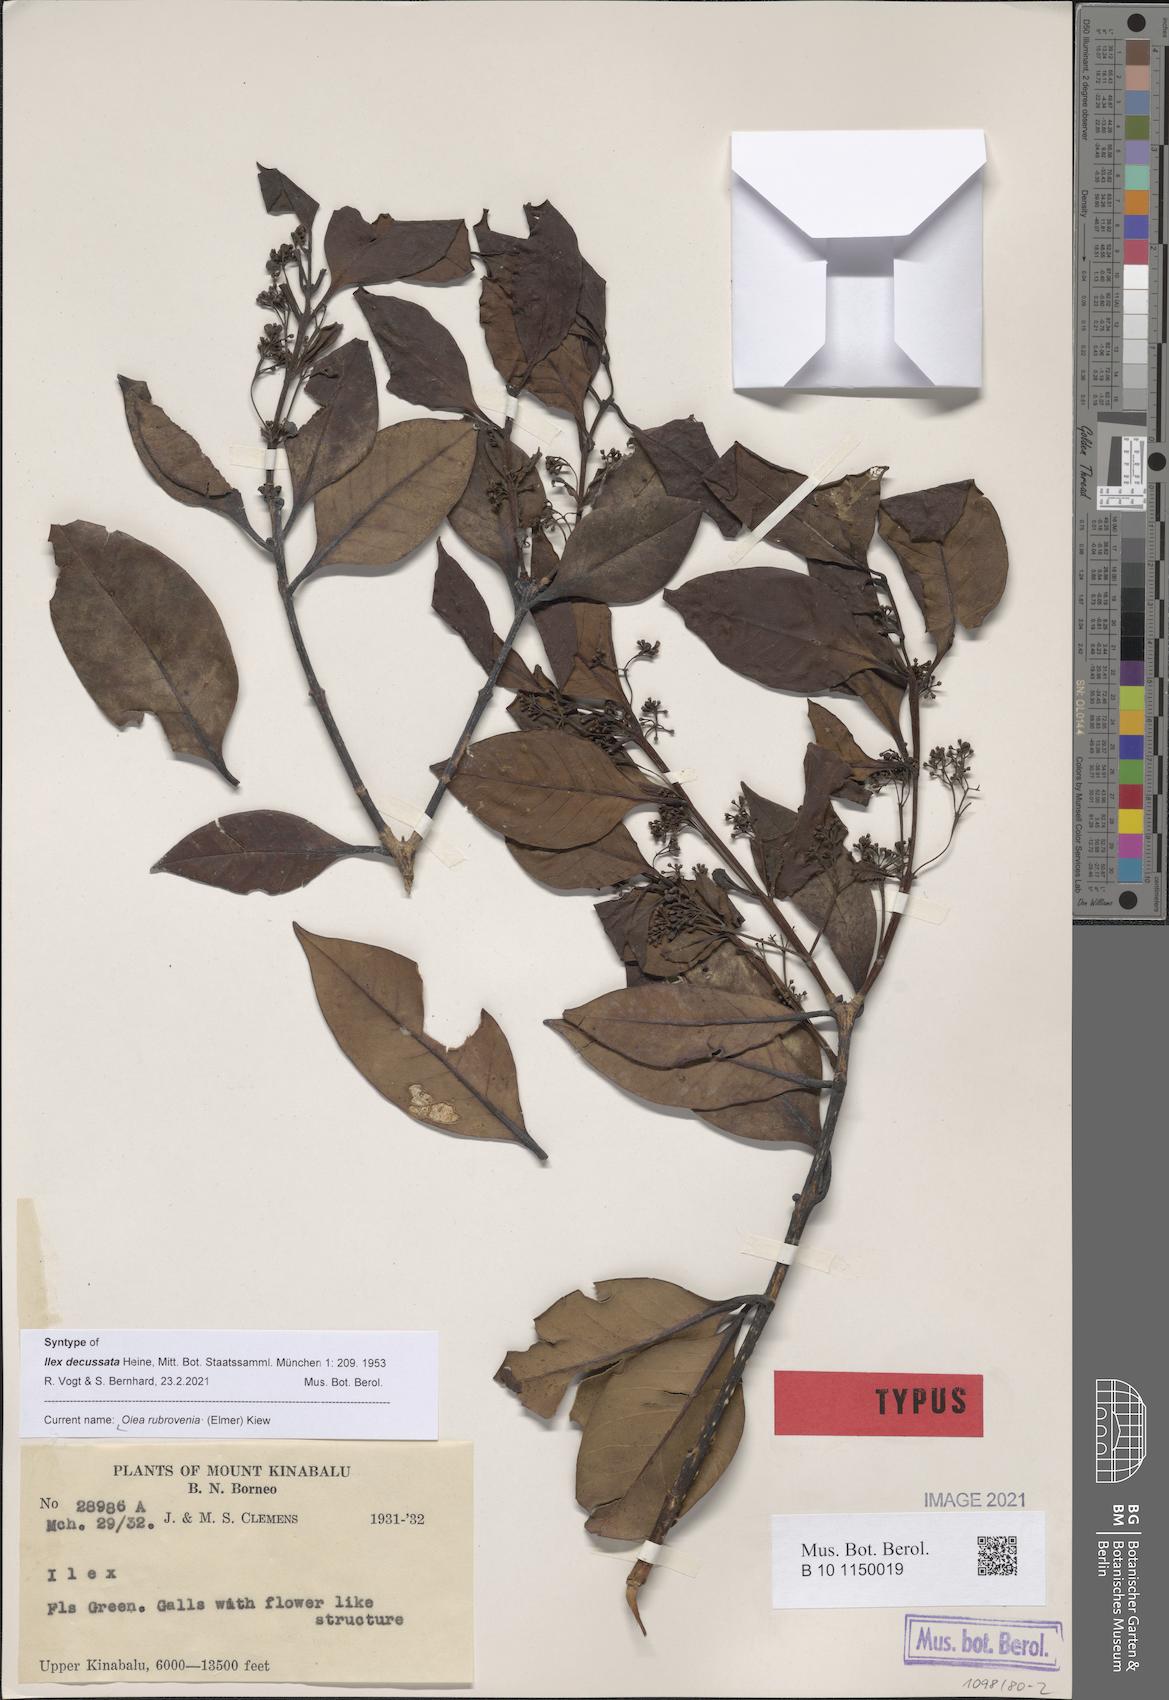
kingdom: Plantae
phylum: Tracheophyta
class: Magnoliopsida
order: Lamiales
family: Oleaceae
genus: Tetrapilus
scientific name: Tetrapilus rubrovenius
